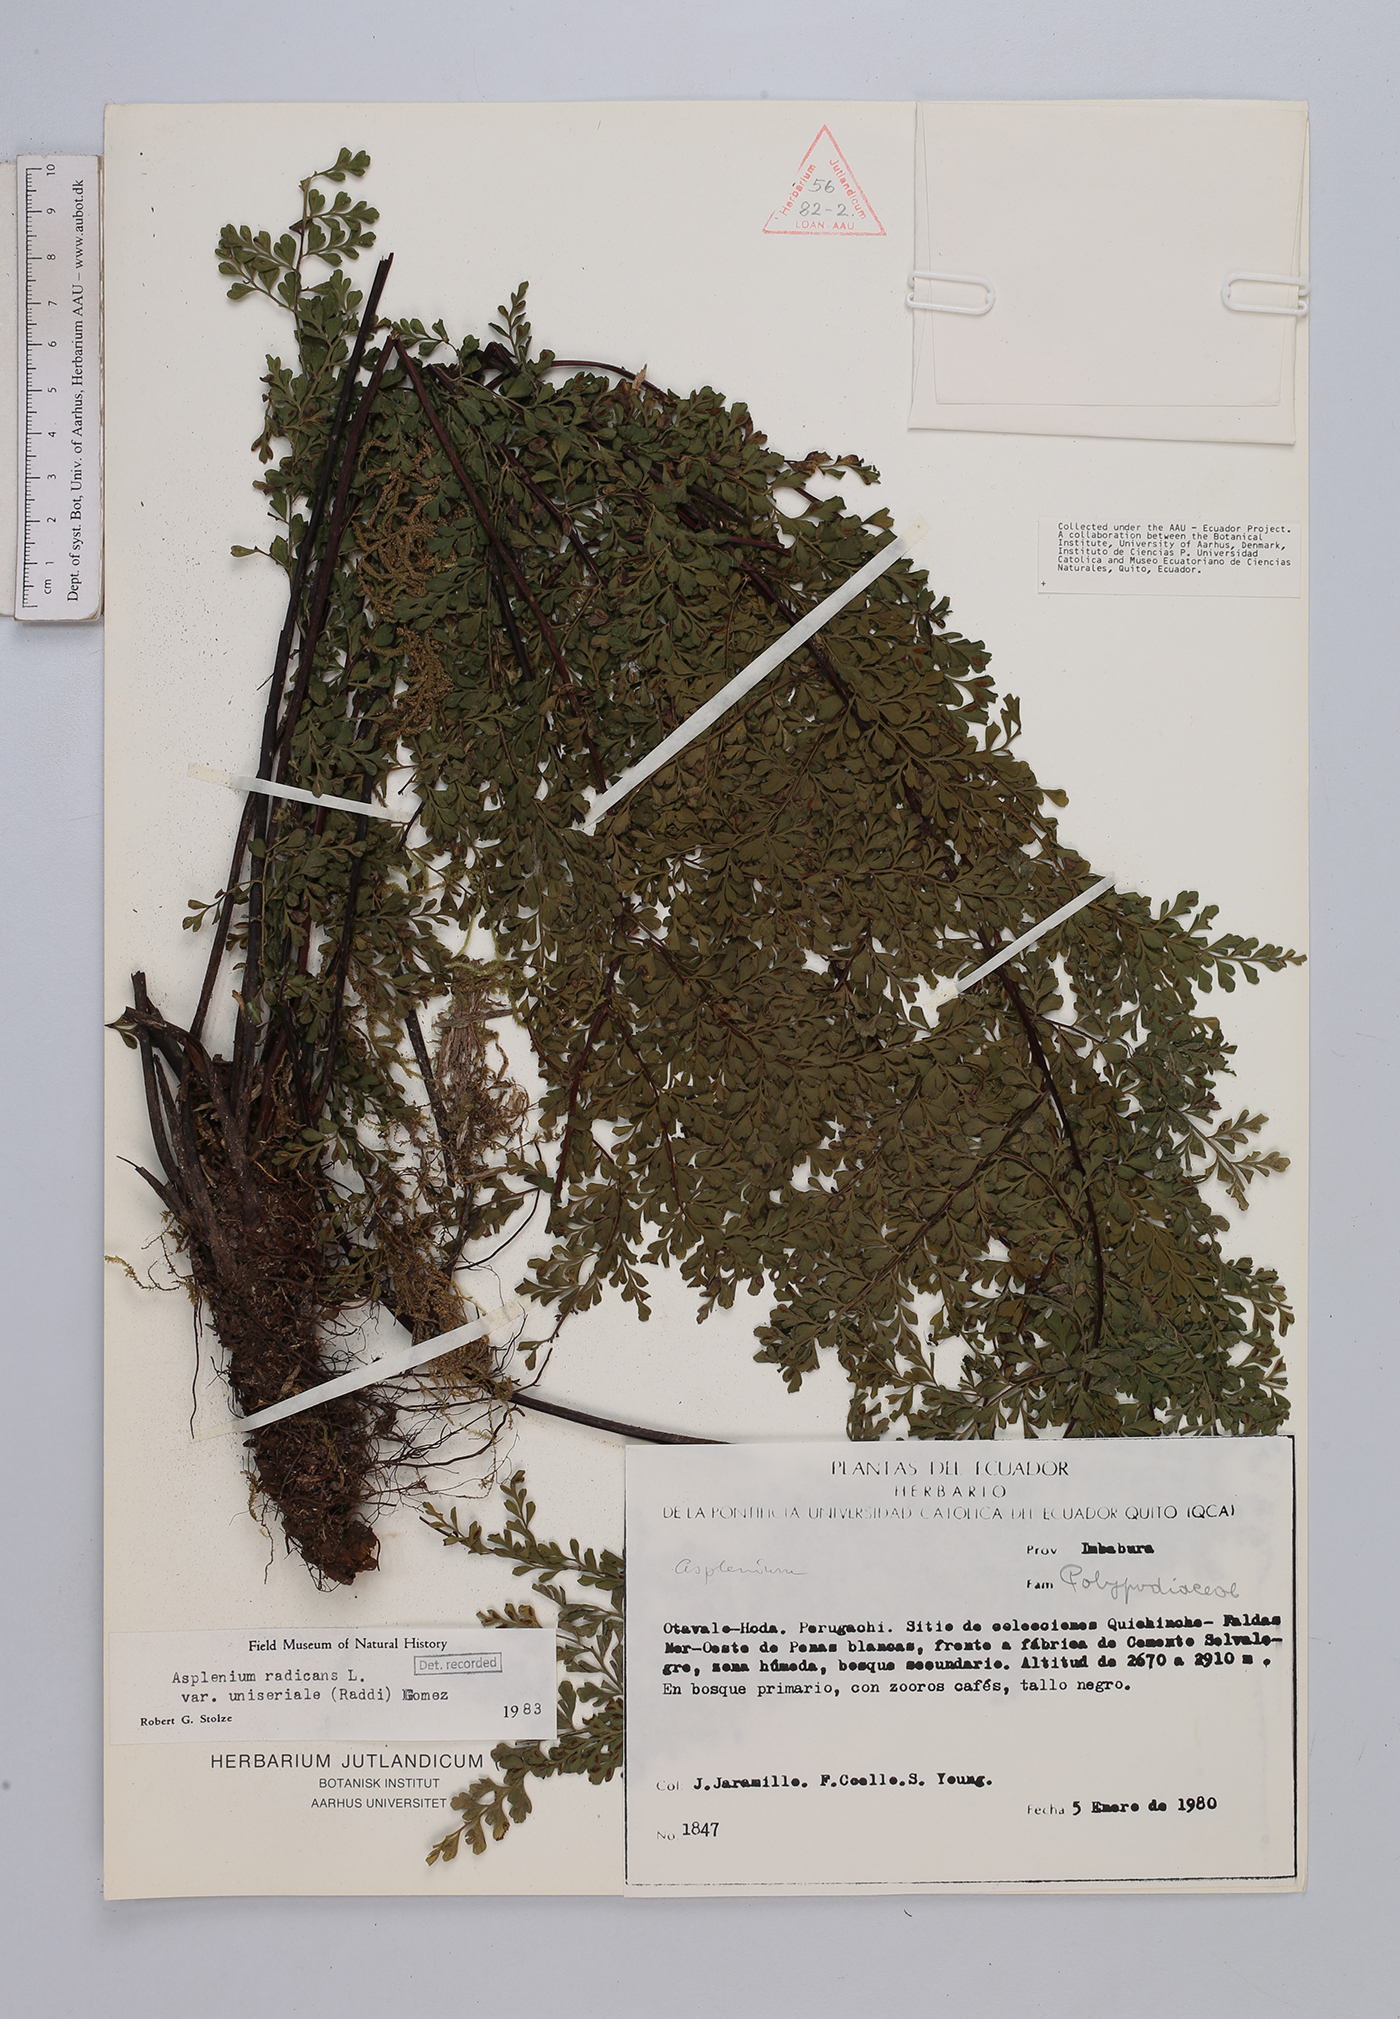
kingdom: Plantae
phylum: Tracheophyta
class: Polypodiopsida
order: Polypodiales
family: Aspleniaceae
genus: Asplenium
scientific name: Asplenium uniseriale
